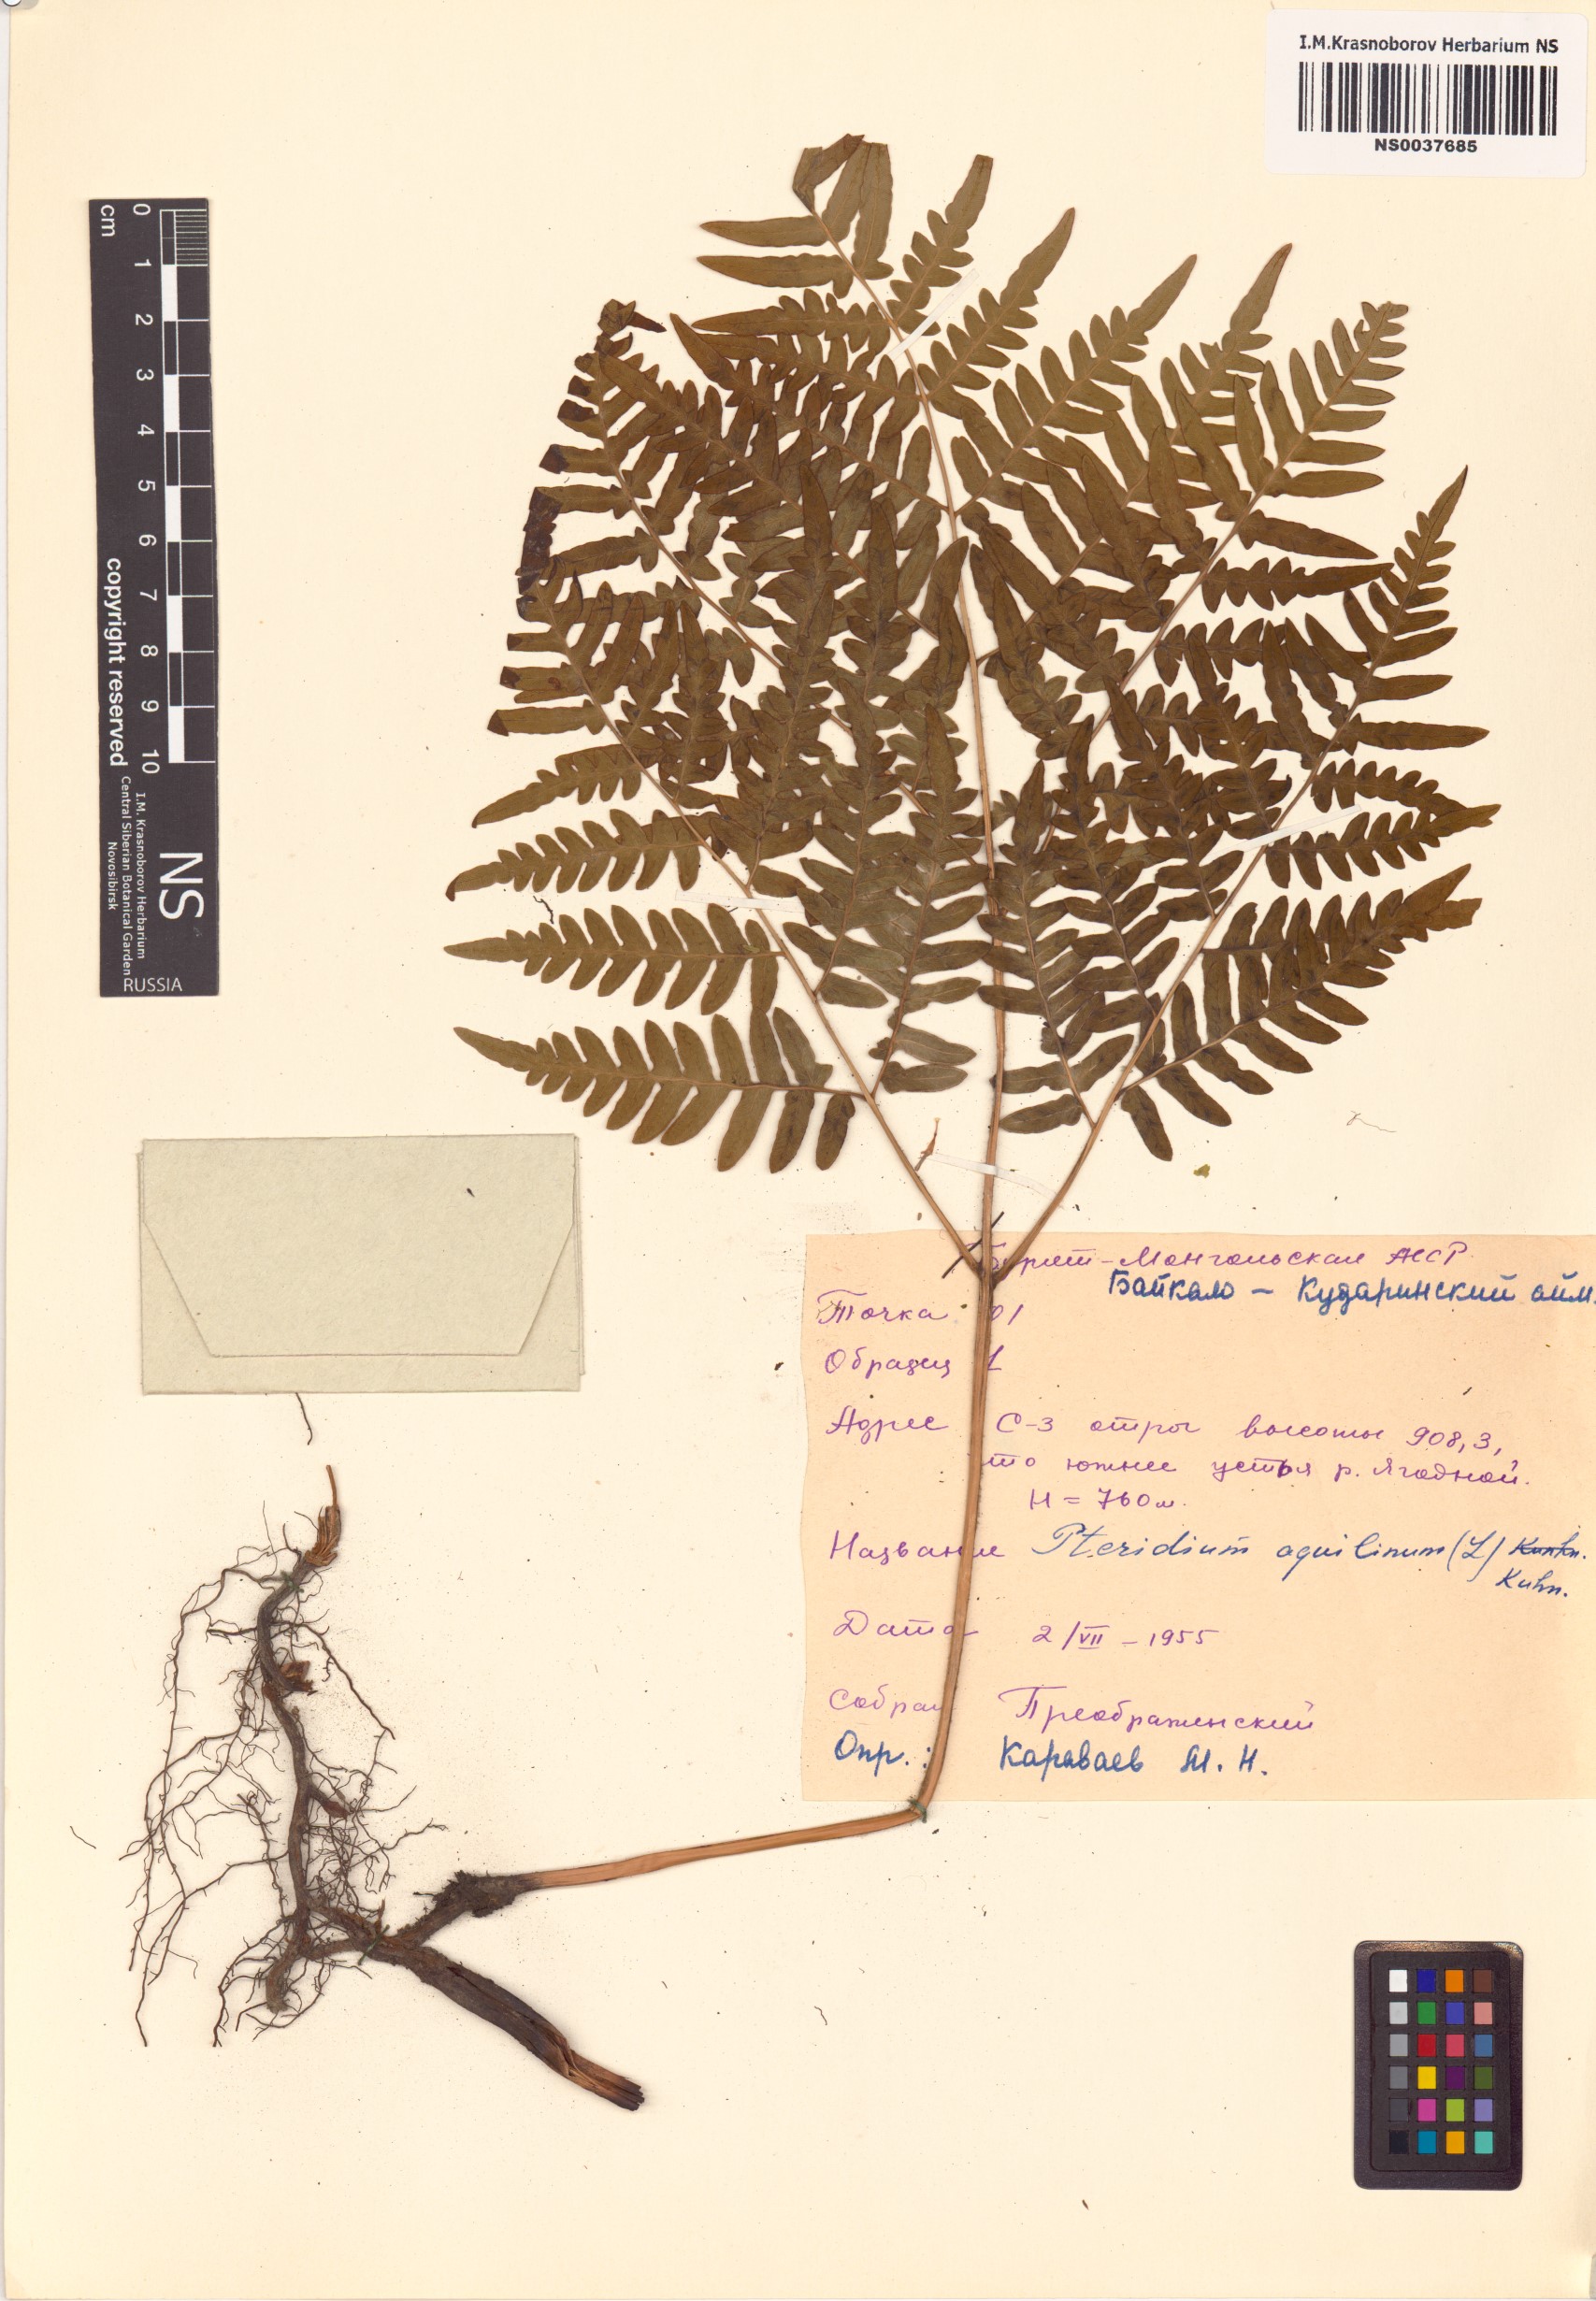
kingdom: Plantae
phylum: Tracheophyta
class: Polypodiopsida
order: Polypodiales
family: Dennstaedtiaceae
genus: Pteridium
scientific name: Pteridium aquilinum
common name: Bracken
